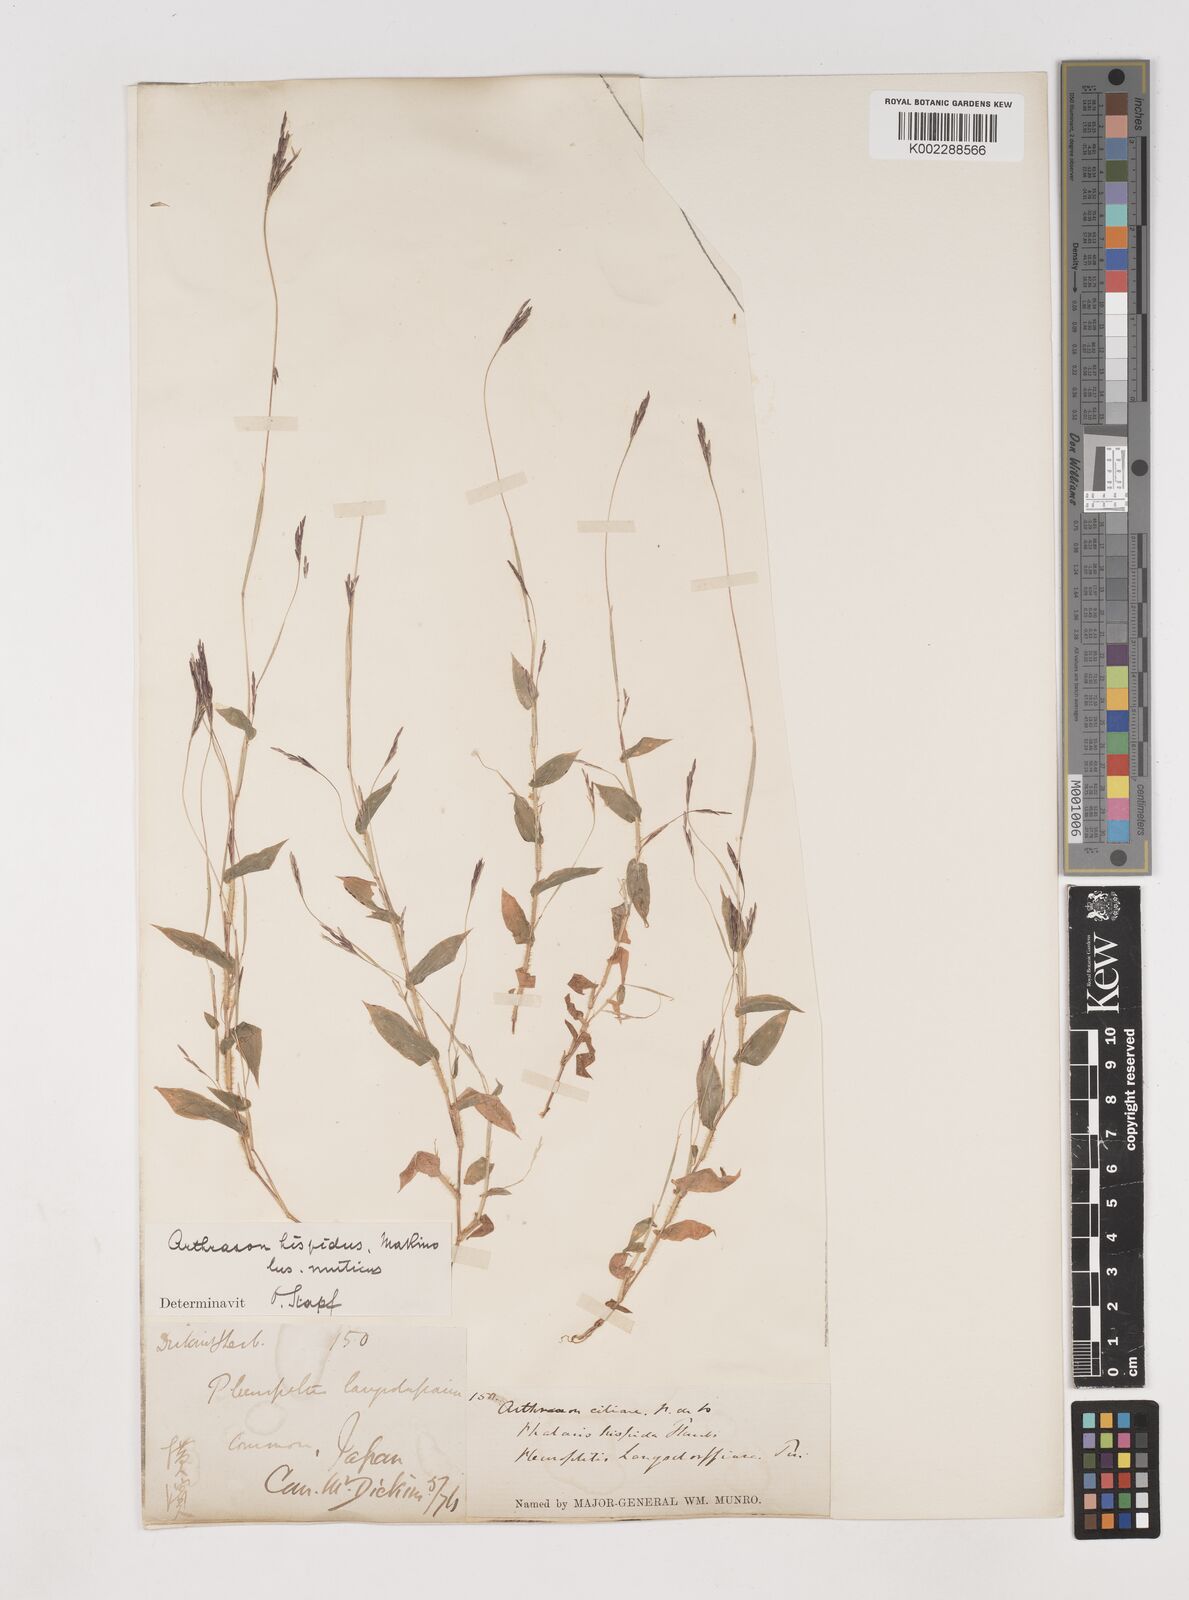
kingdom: Plantae
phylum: Tracheophyta
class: Liliopsida
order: Poales
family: Poaceae
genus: Arthraxon
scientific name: Arthraxon hispidus
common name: Small carpgrass
